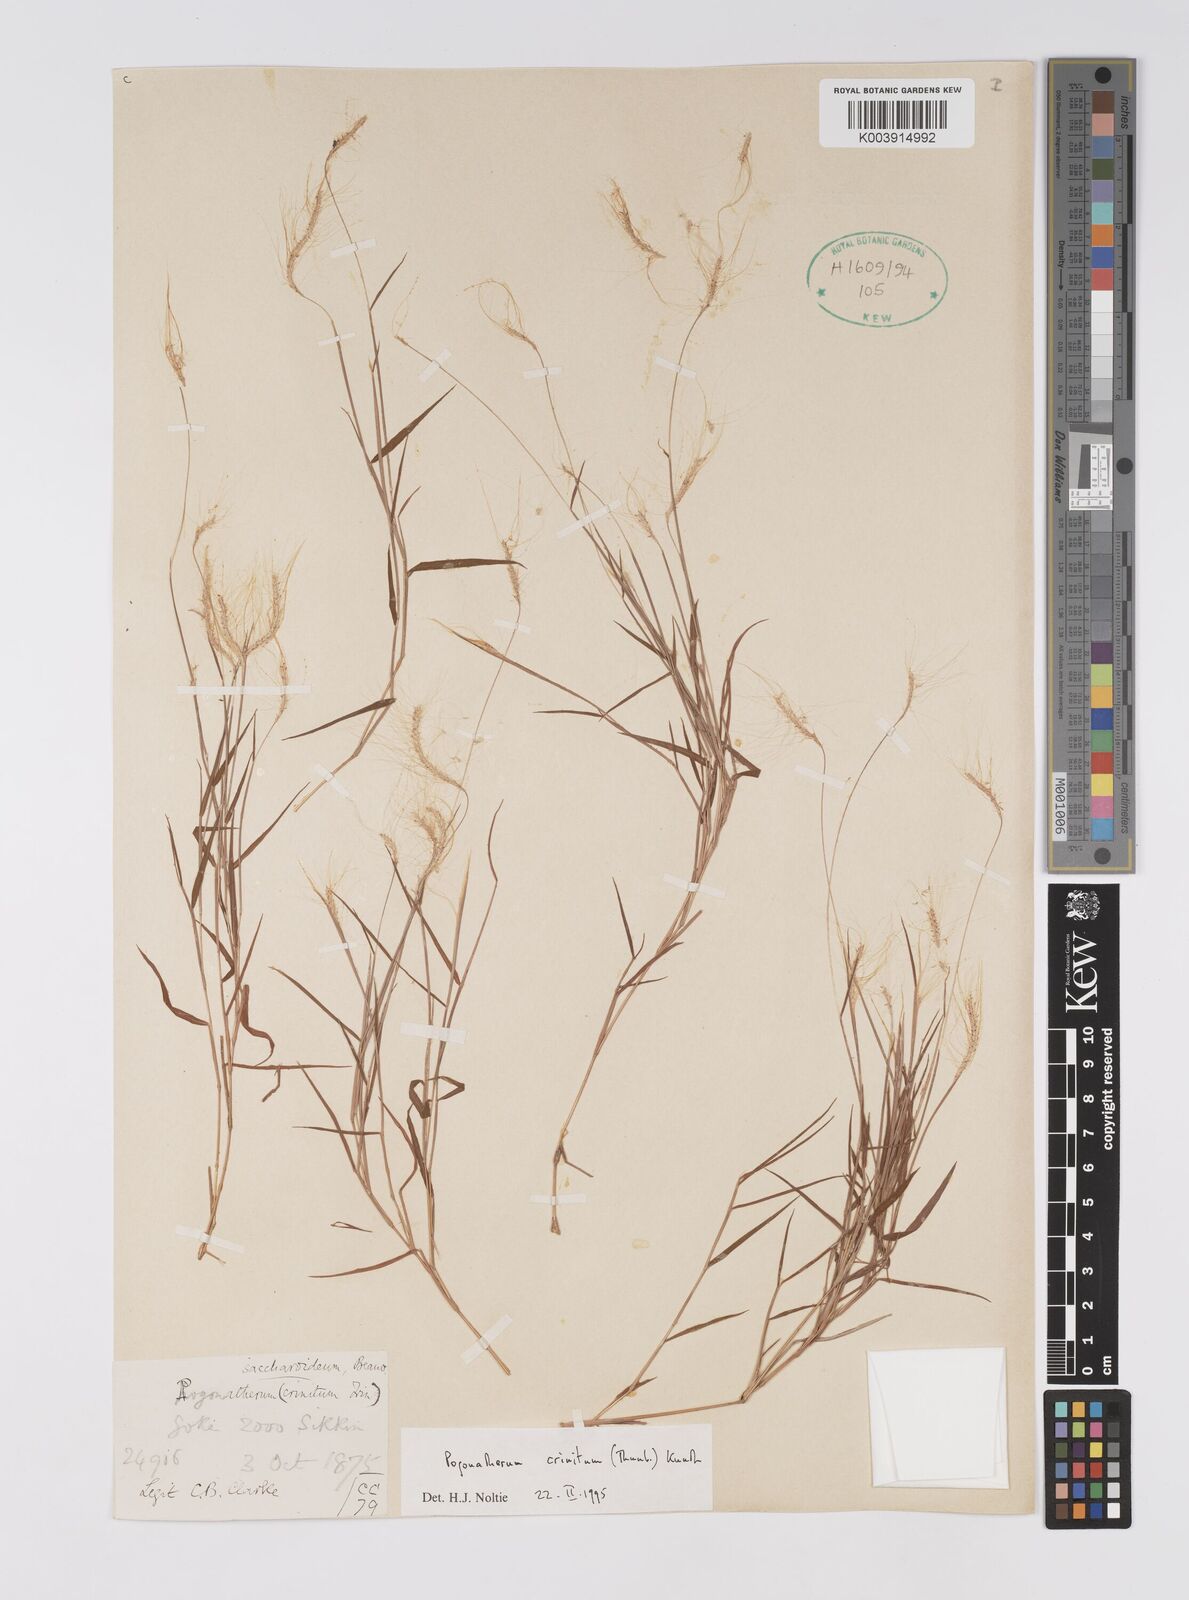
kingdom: Plantae
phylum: Tracheophyta
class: Liliopsida
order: Poales
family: Poaceae
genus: Pogonatherum
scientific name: Pogonatherum crinitum
